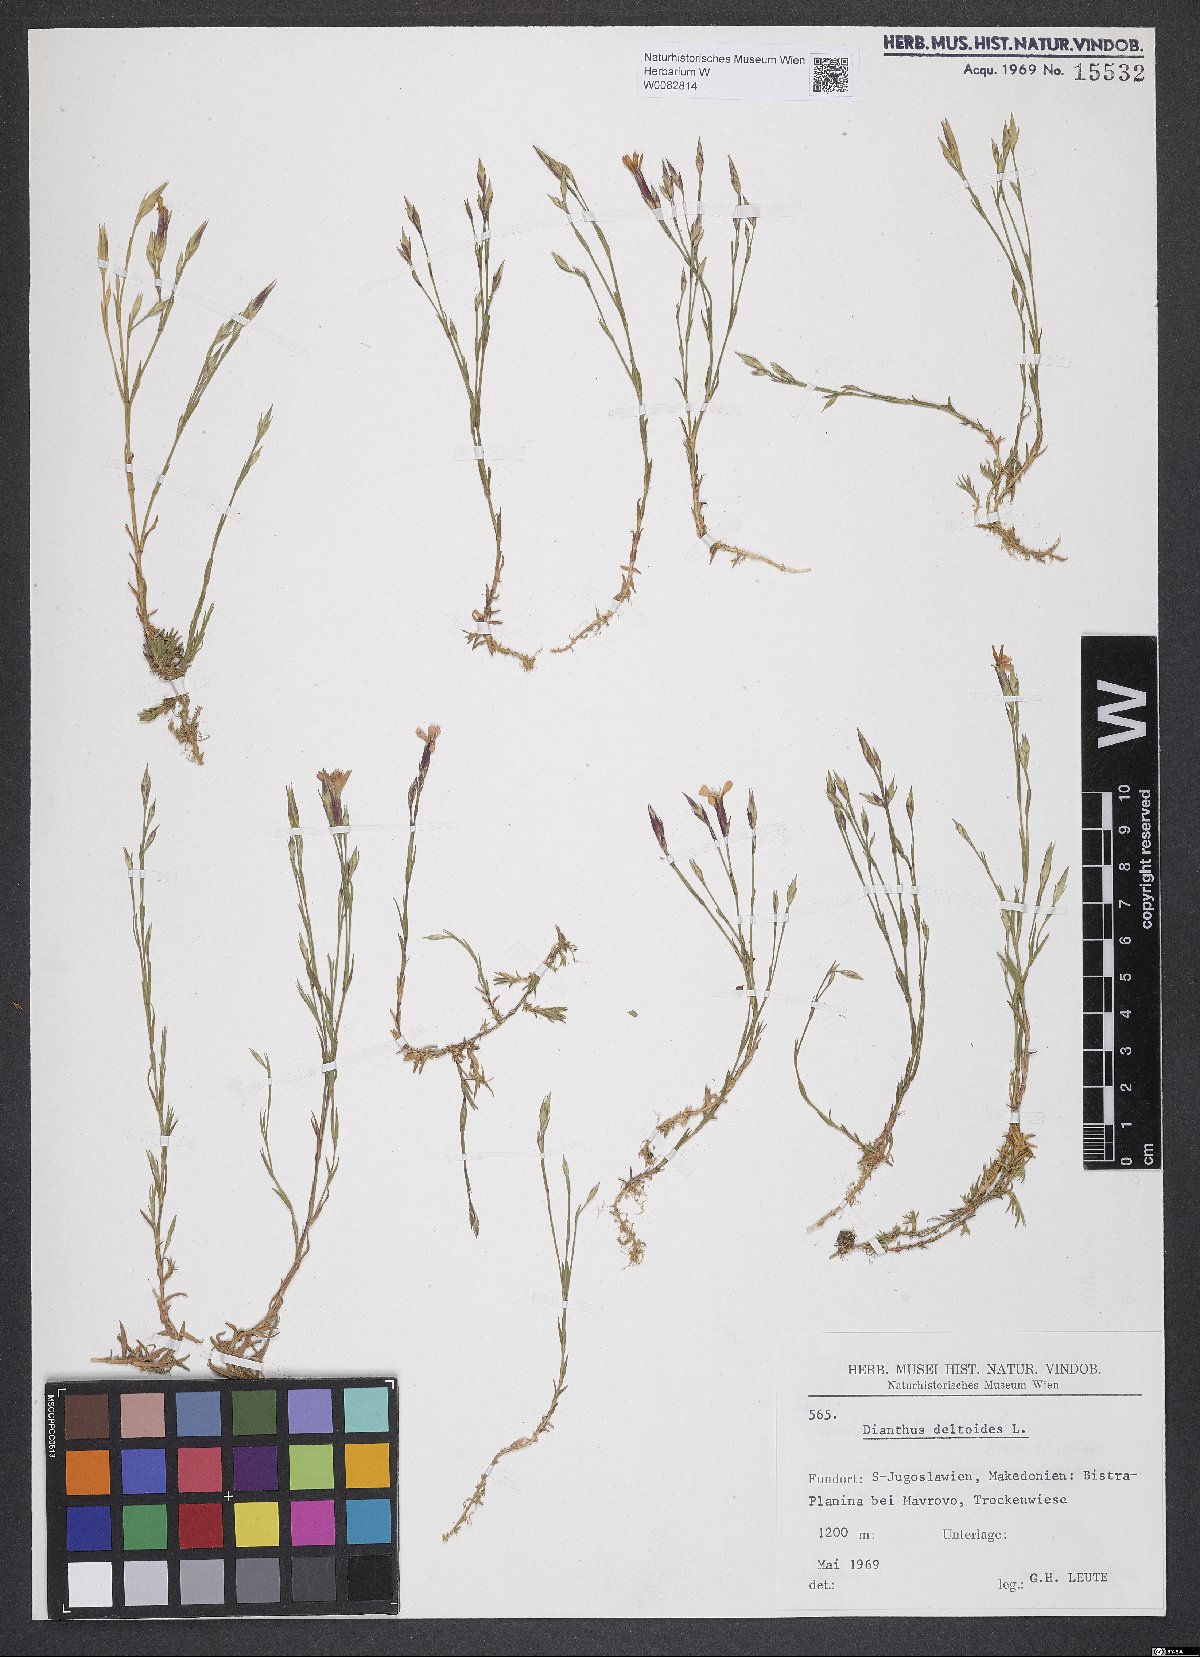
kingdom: Plantae
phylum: Tracheophyta
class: Magnoliopsida
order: Caryophyllales
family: Caryophyllaceae
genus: Dianthus
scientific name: Dianthus deltoides
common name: Maiden pink
